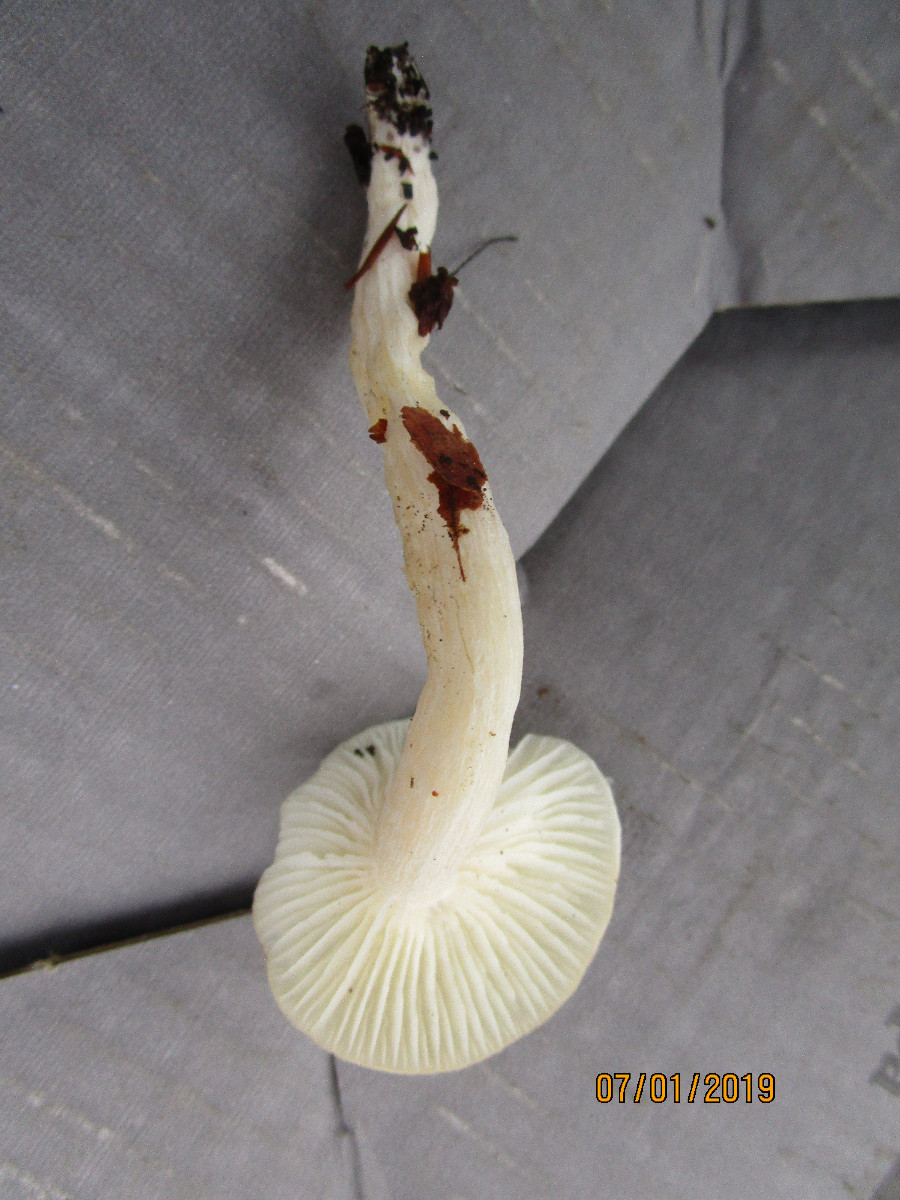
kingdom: Fungi
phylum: Basidiomycota
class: Agaricomycetes
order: Agaricales
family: Hygrophoraceae
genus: Hygrophorus
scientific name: Hygrophorus eburneus
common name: elfenbens-sneglehat
